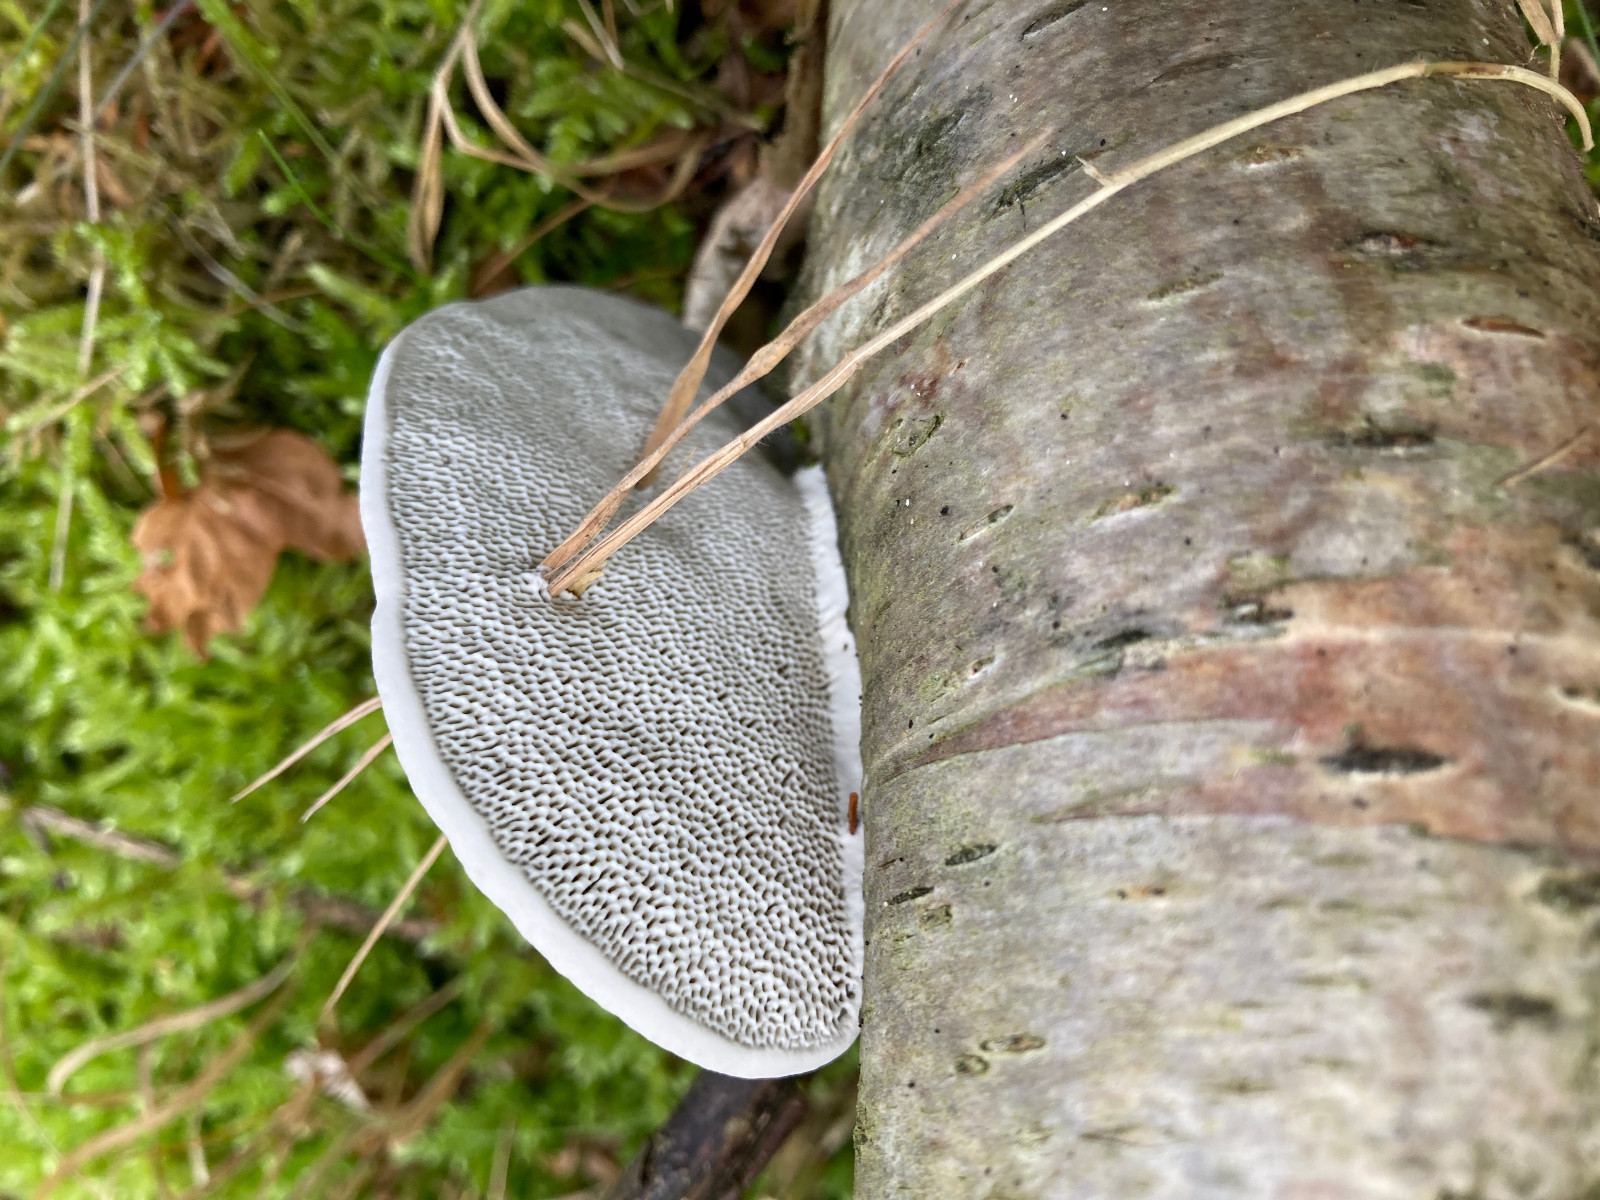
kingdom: Fungi
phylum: Basidiomycota
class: Agaricomycetes
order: Polyporales
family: Polyporaceae
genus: Daedaleopsis
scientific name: Daedaleopsis confragosa
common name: rødmende læderporesvamp
